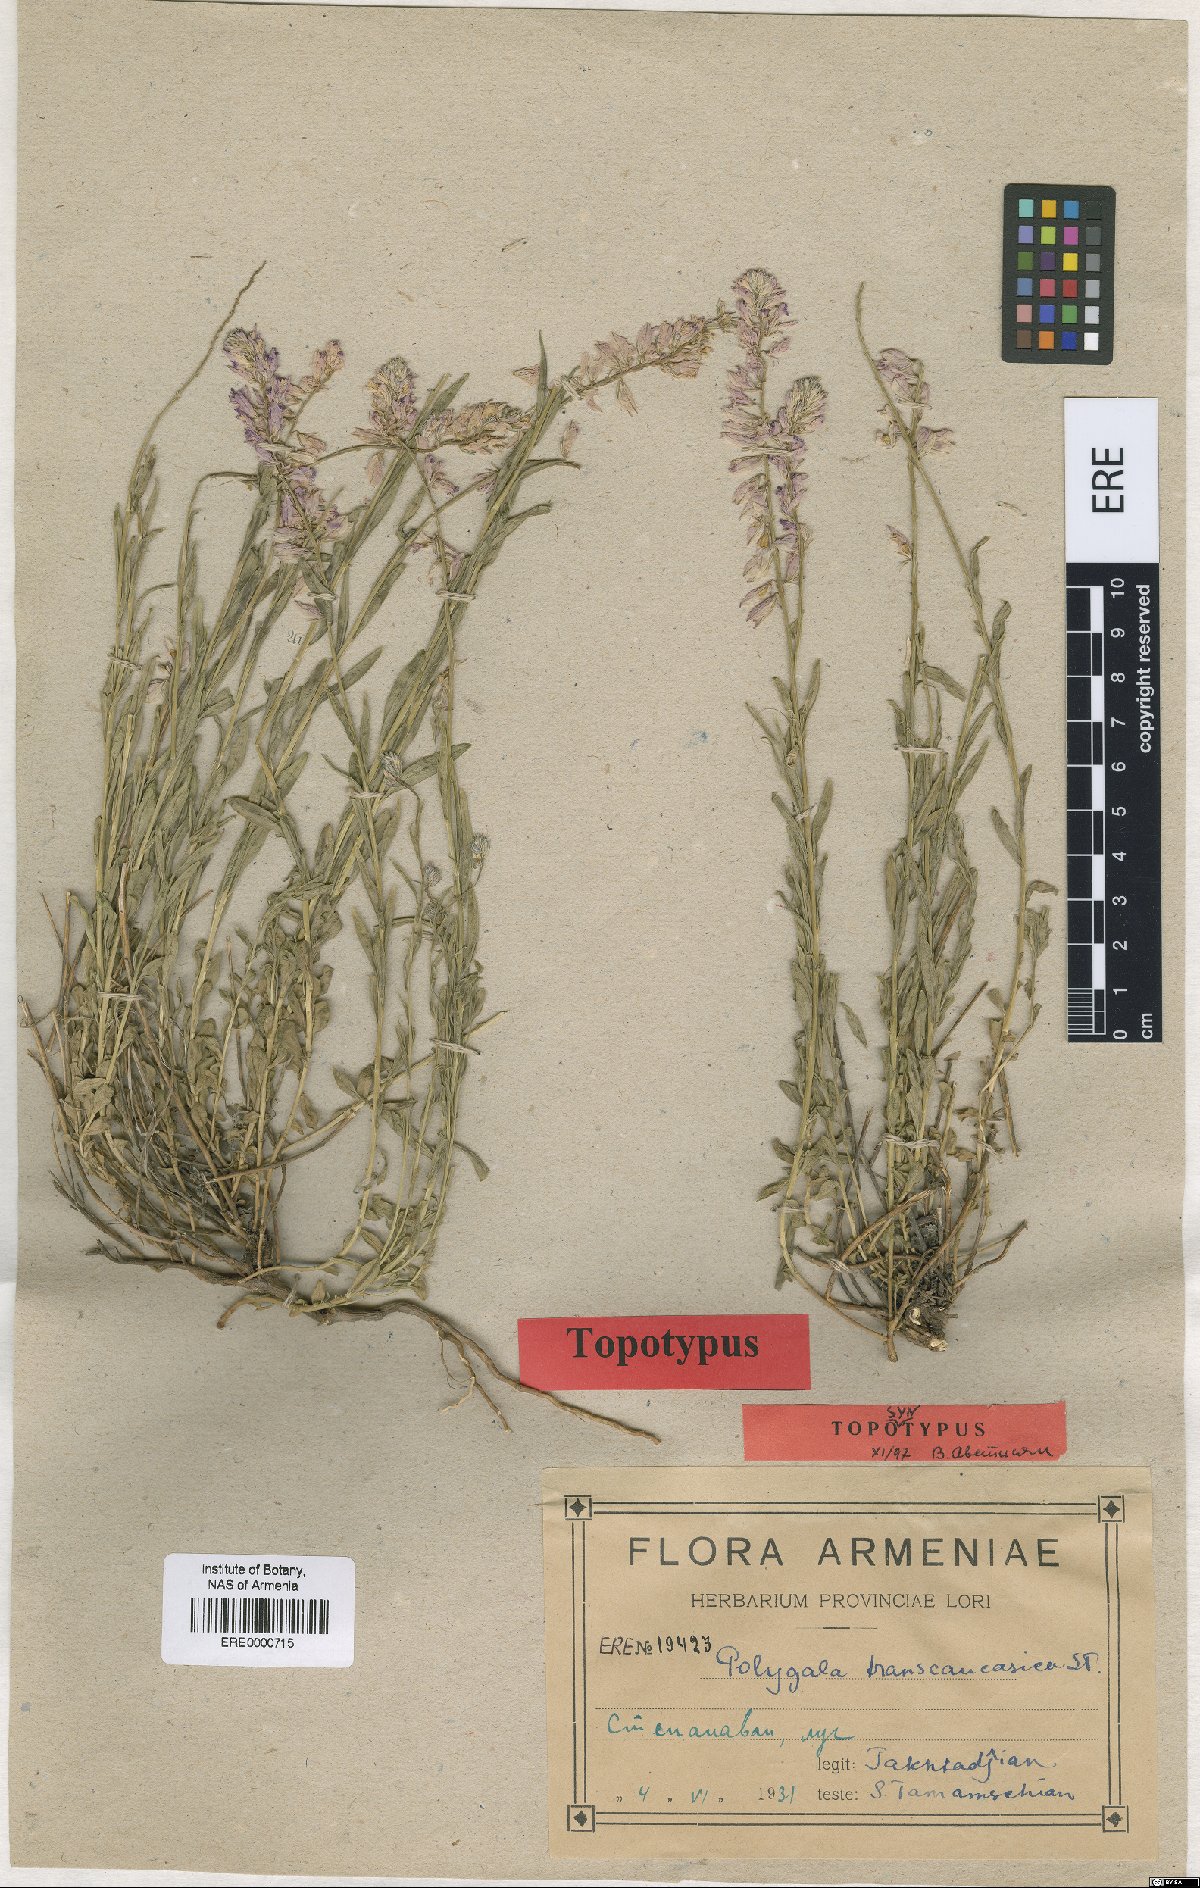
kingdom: Plantae
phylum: Tracheophyta
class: Magnoliopsida
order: Fabales
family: Polygalaceae
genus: Polygala
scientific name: Polygala transcaucasica
